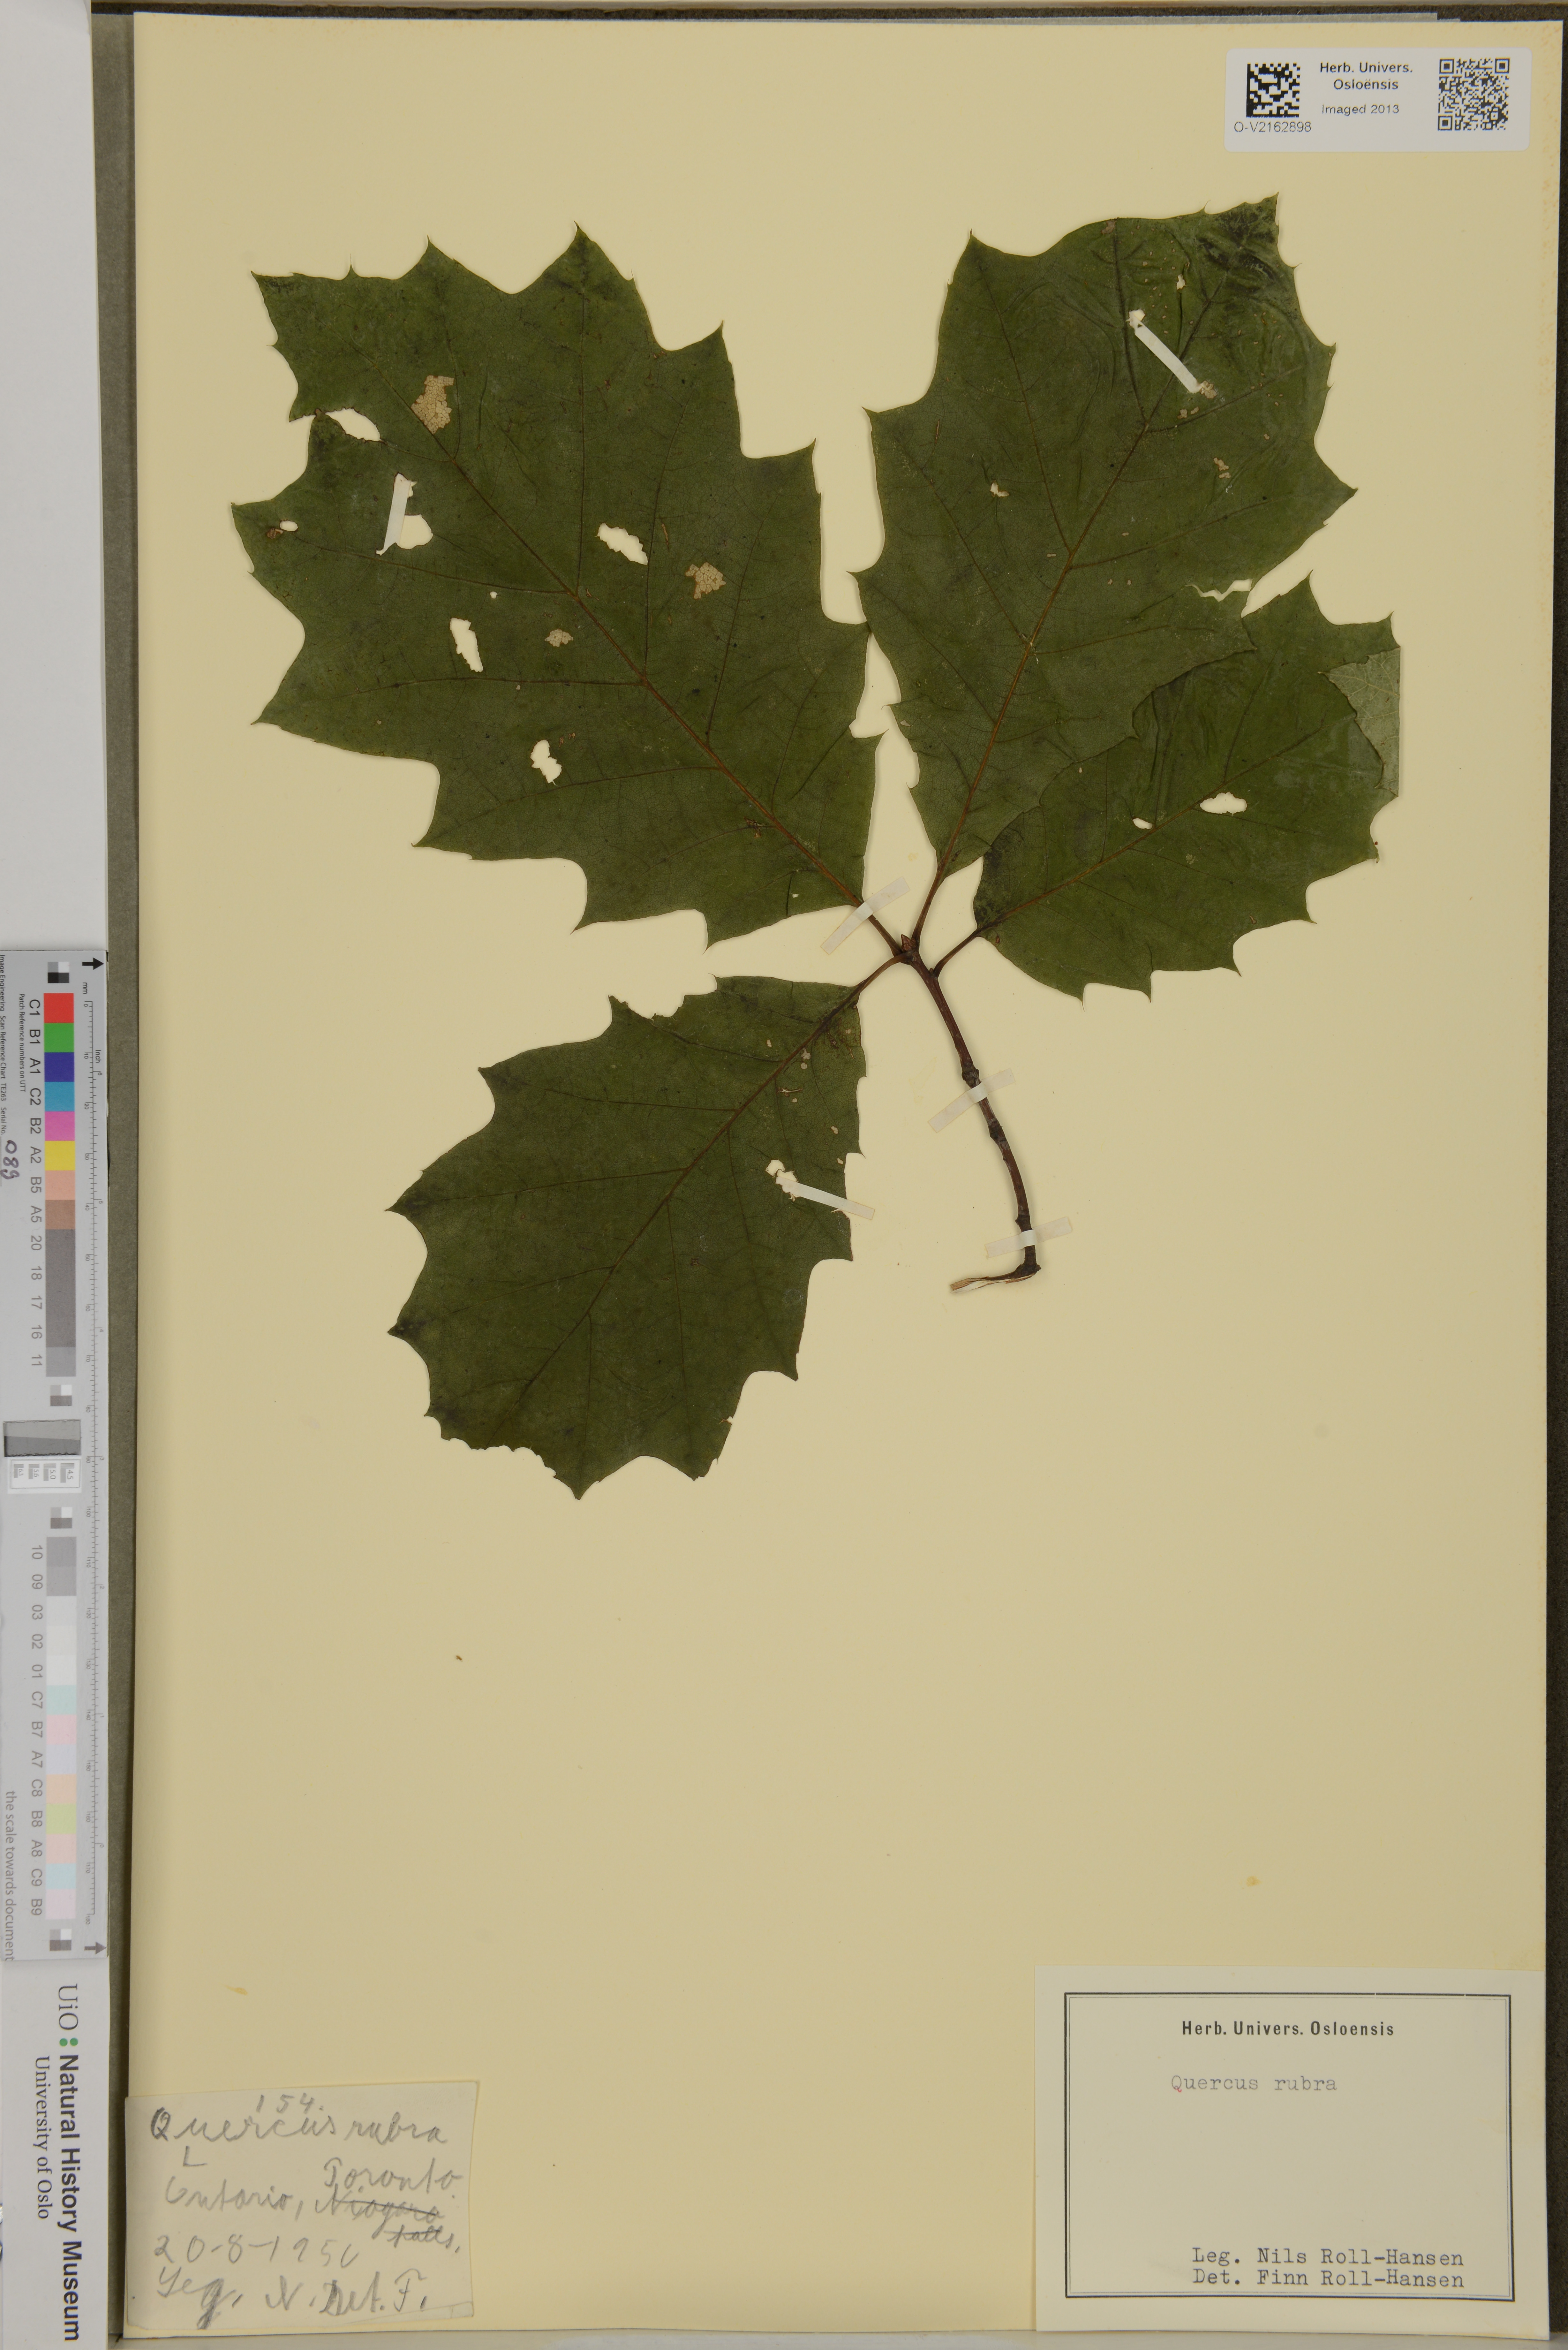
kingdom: Plantae
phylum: Tracheophyta
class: Magnoliopsida
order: Fagales
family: Fagaceae
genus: Quercus
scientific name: Quercus rubra
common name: Red oak
